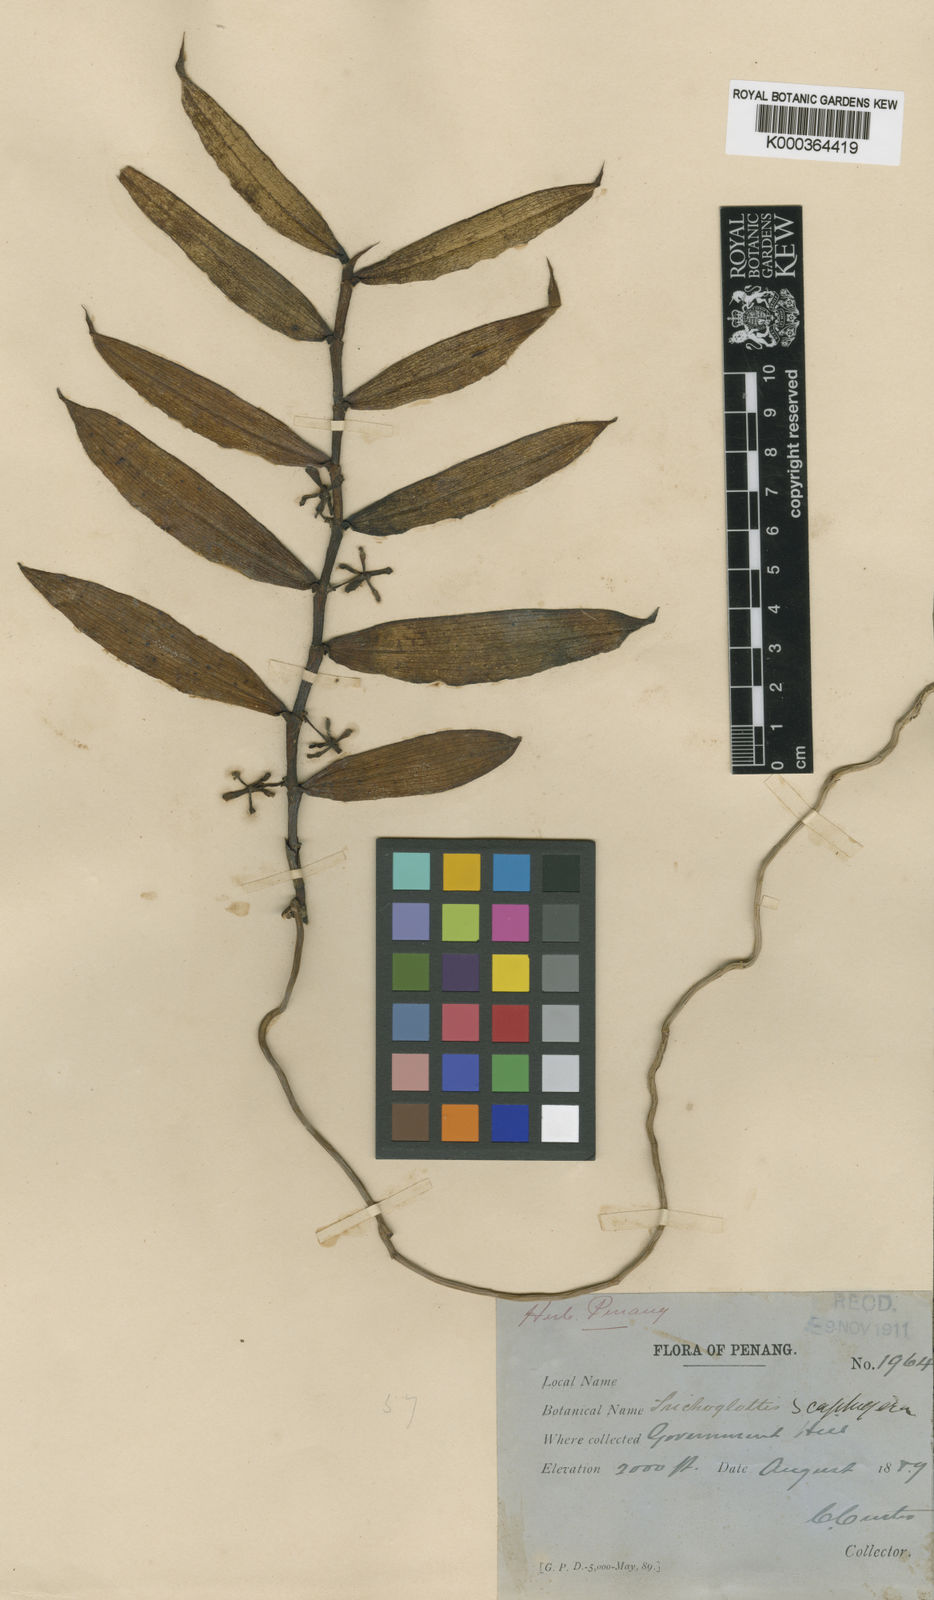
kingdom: Plantae
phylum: Tracheophyta
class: Liliopsida
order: Asparagales
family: Orchidaceae
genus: Trichoglottis
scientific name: Trichoglottis scaphigera
